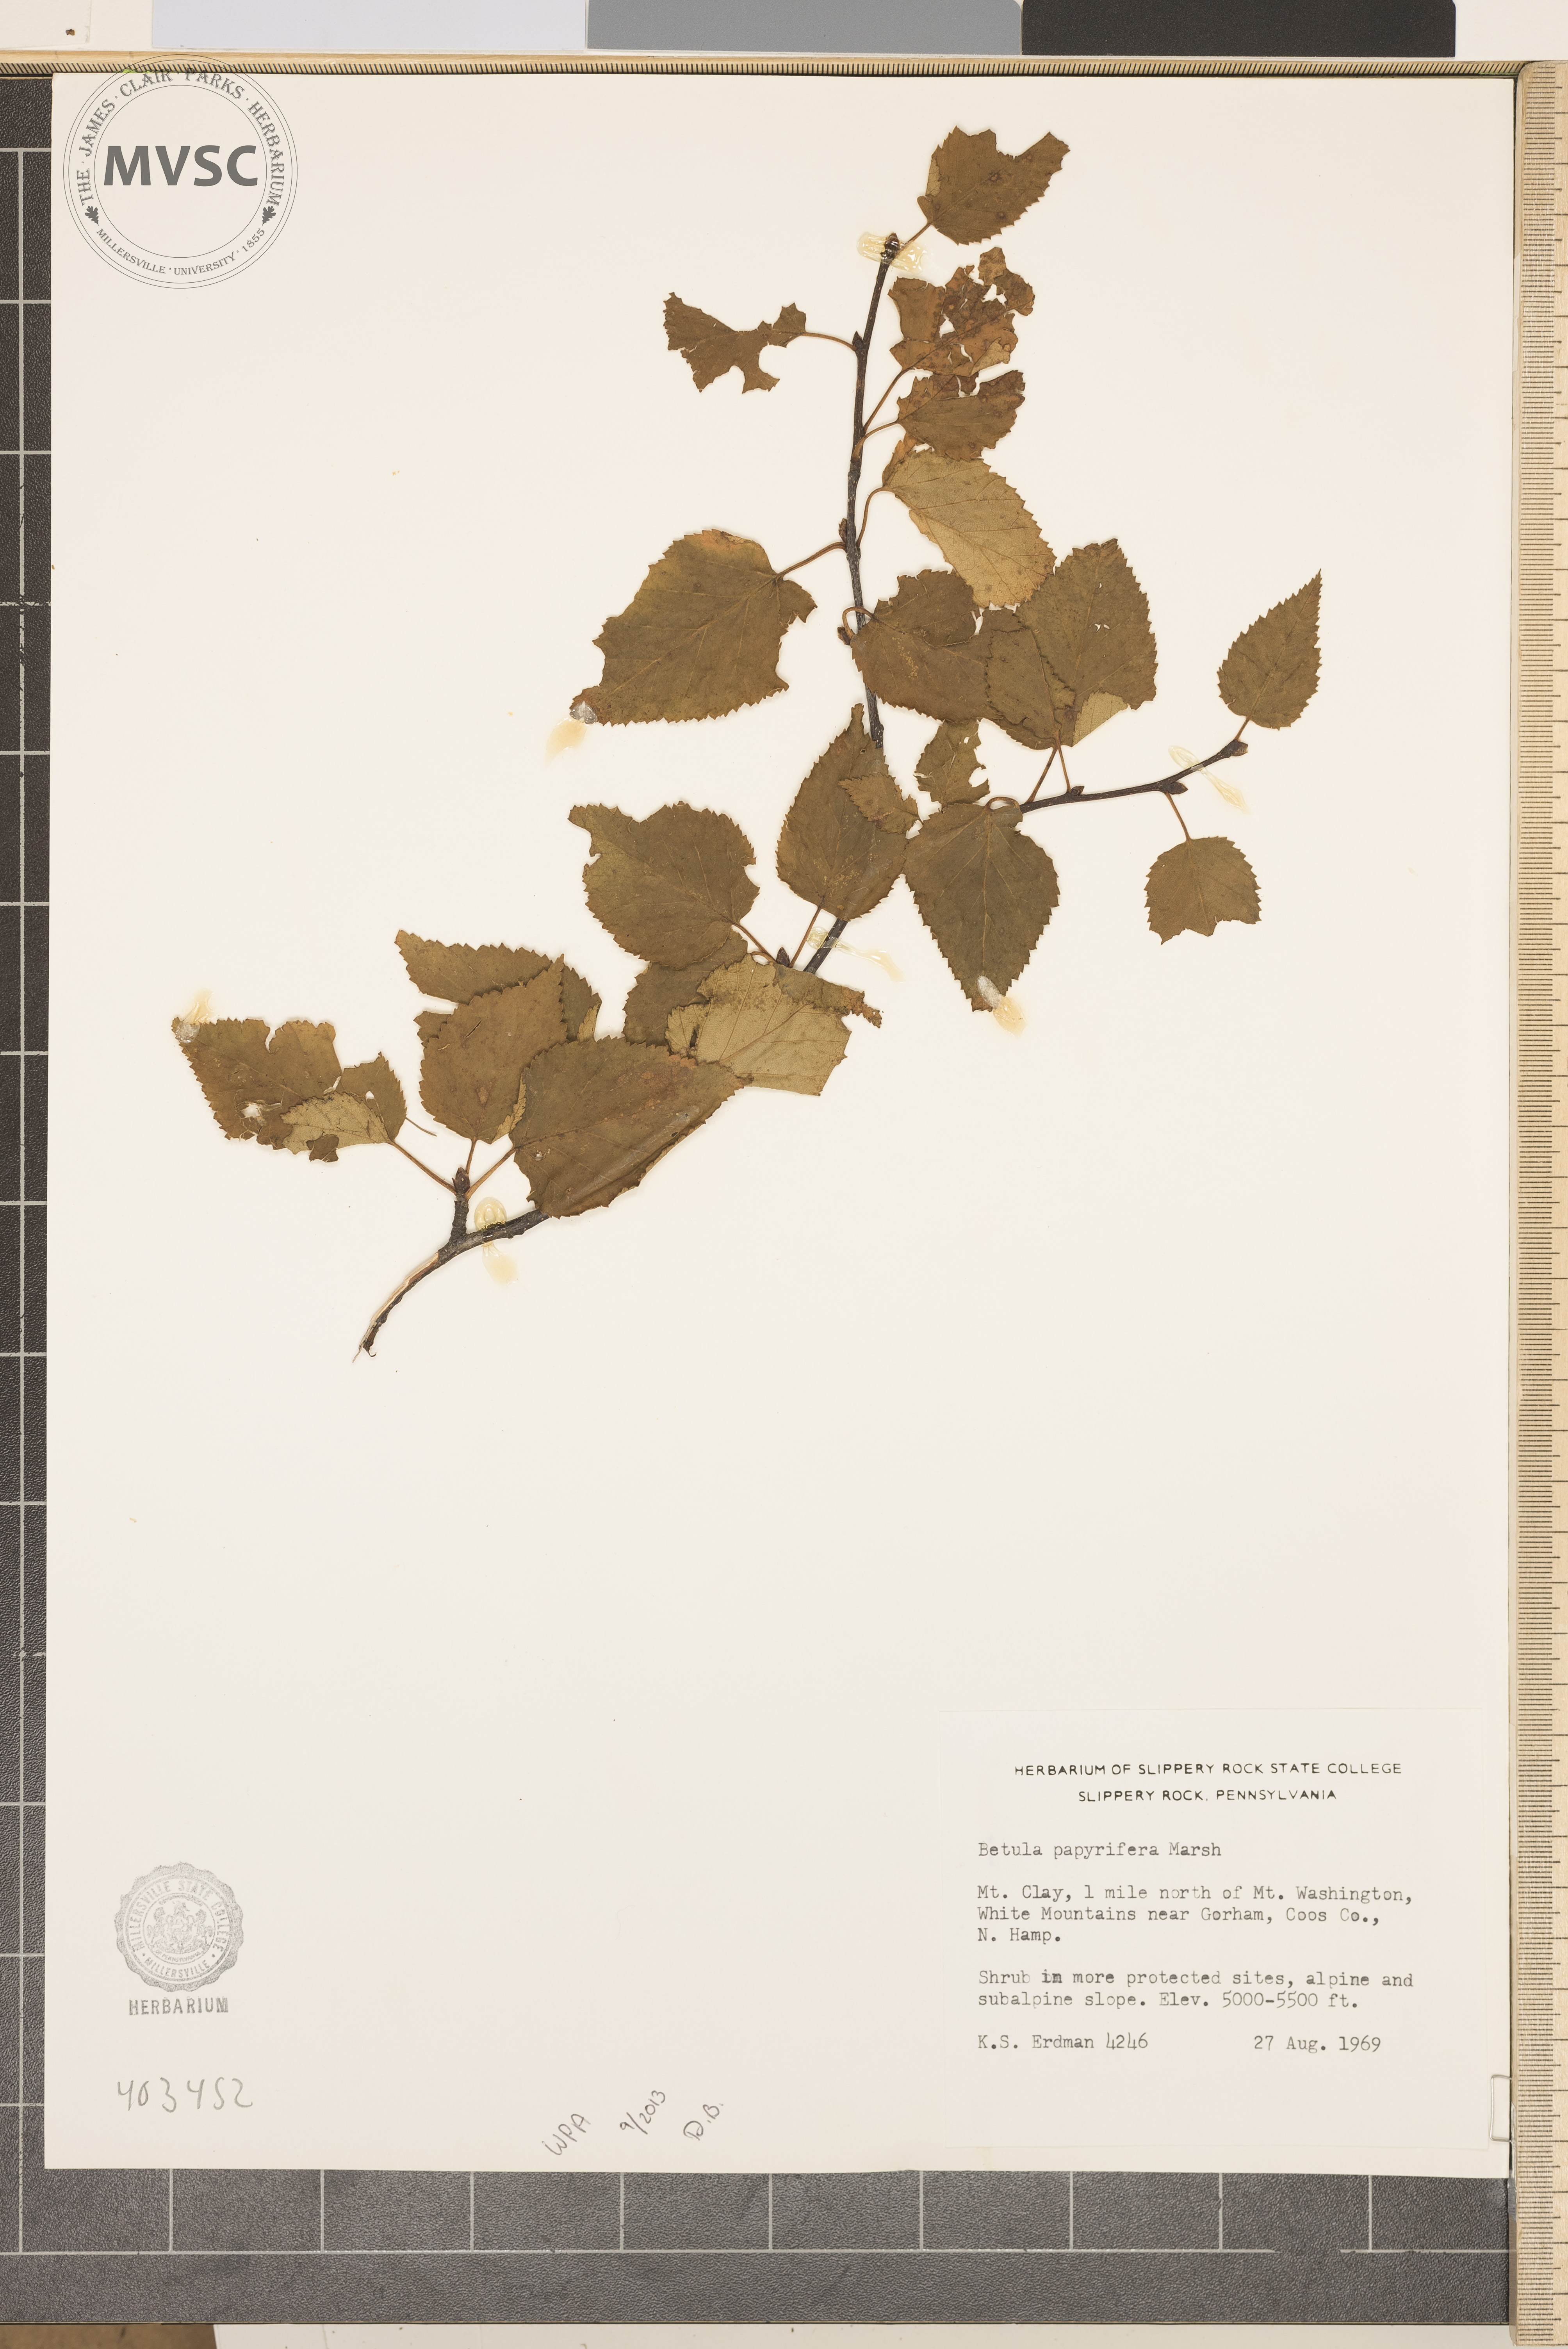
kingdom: Plantae
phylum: Tracheophyta
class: Magnoliopsida
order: Fagales
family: Betulaceae
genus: Betula
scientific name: Betula papyrifera
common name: Paper Birch
